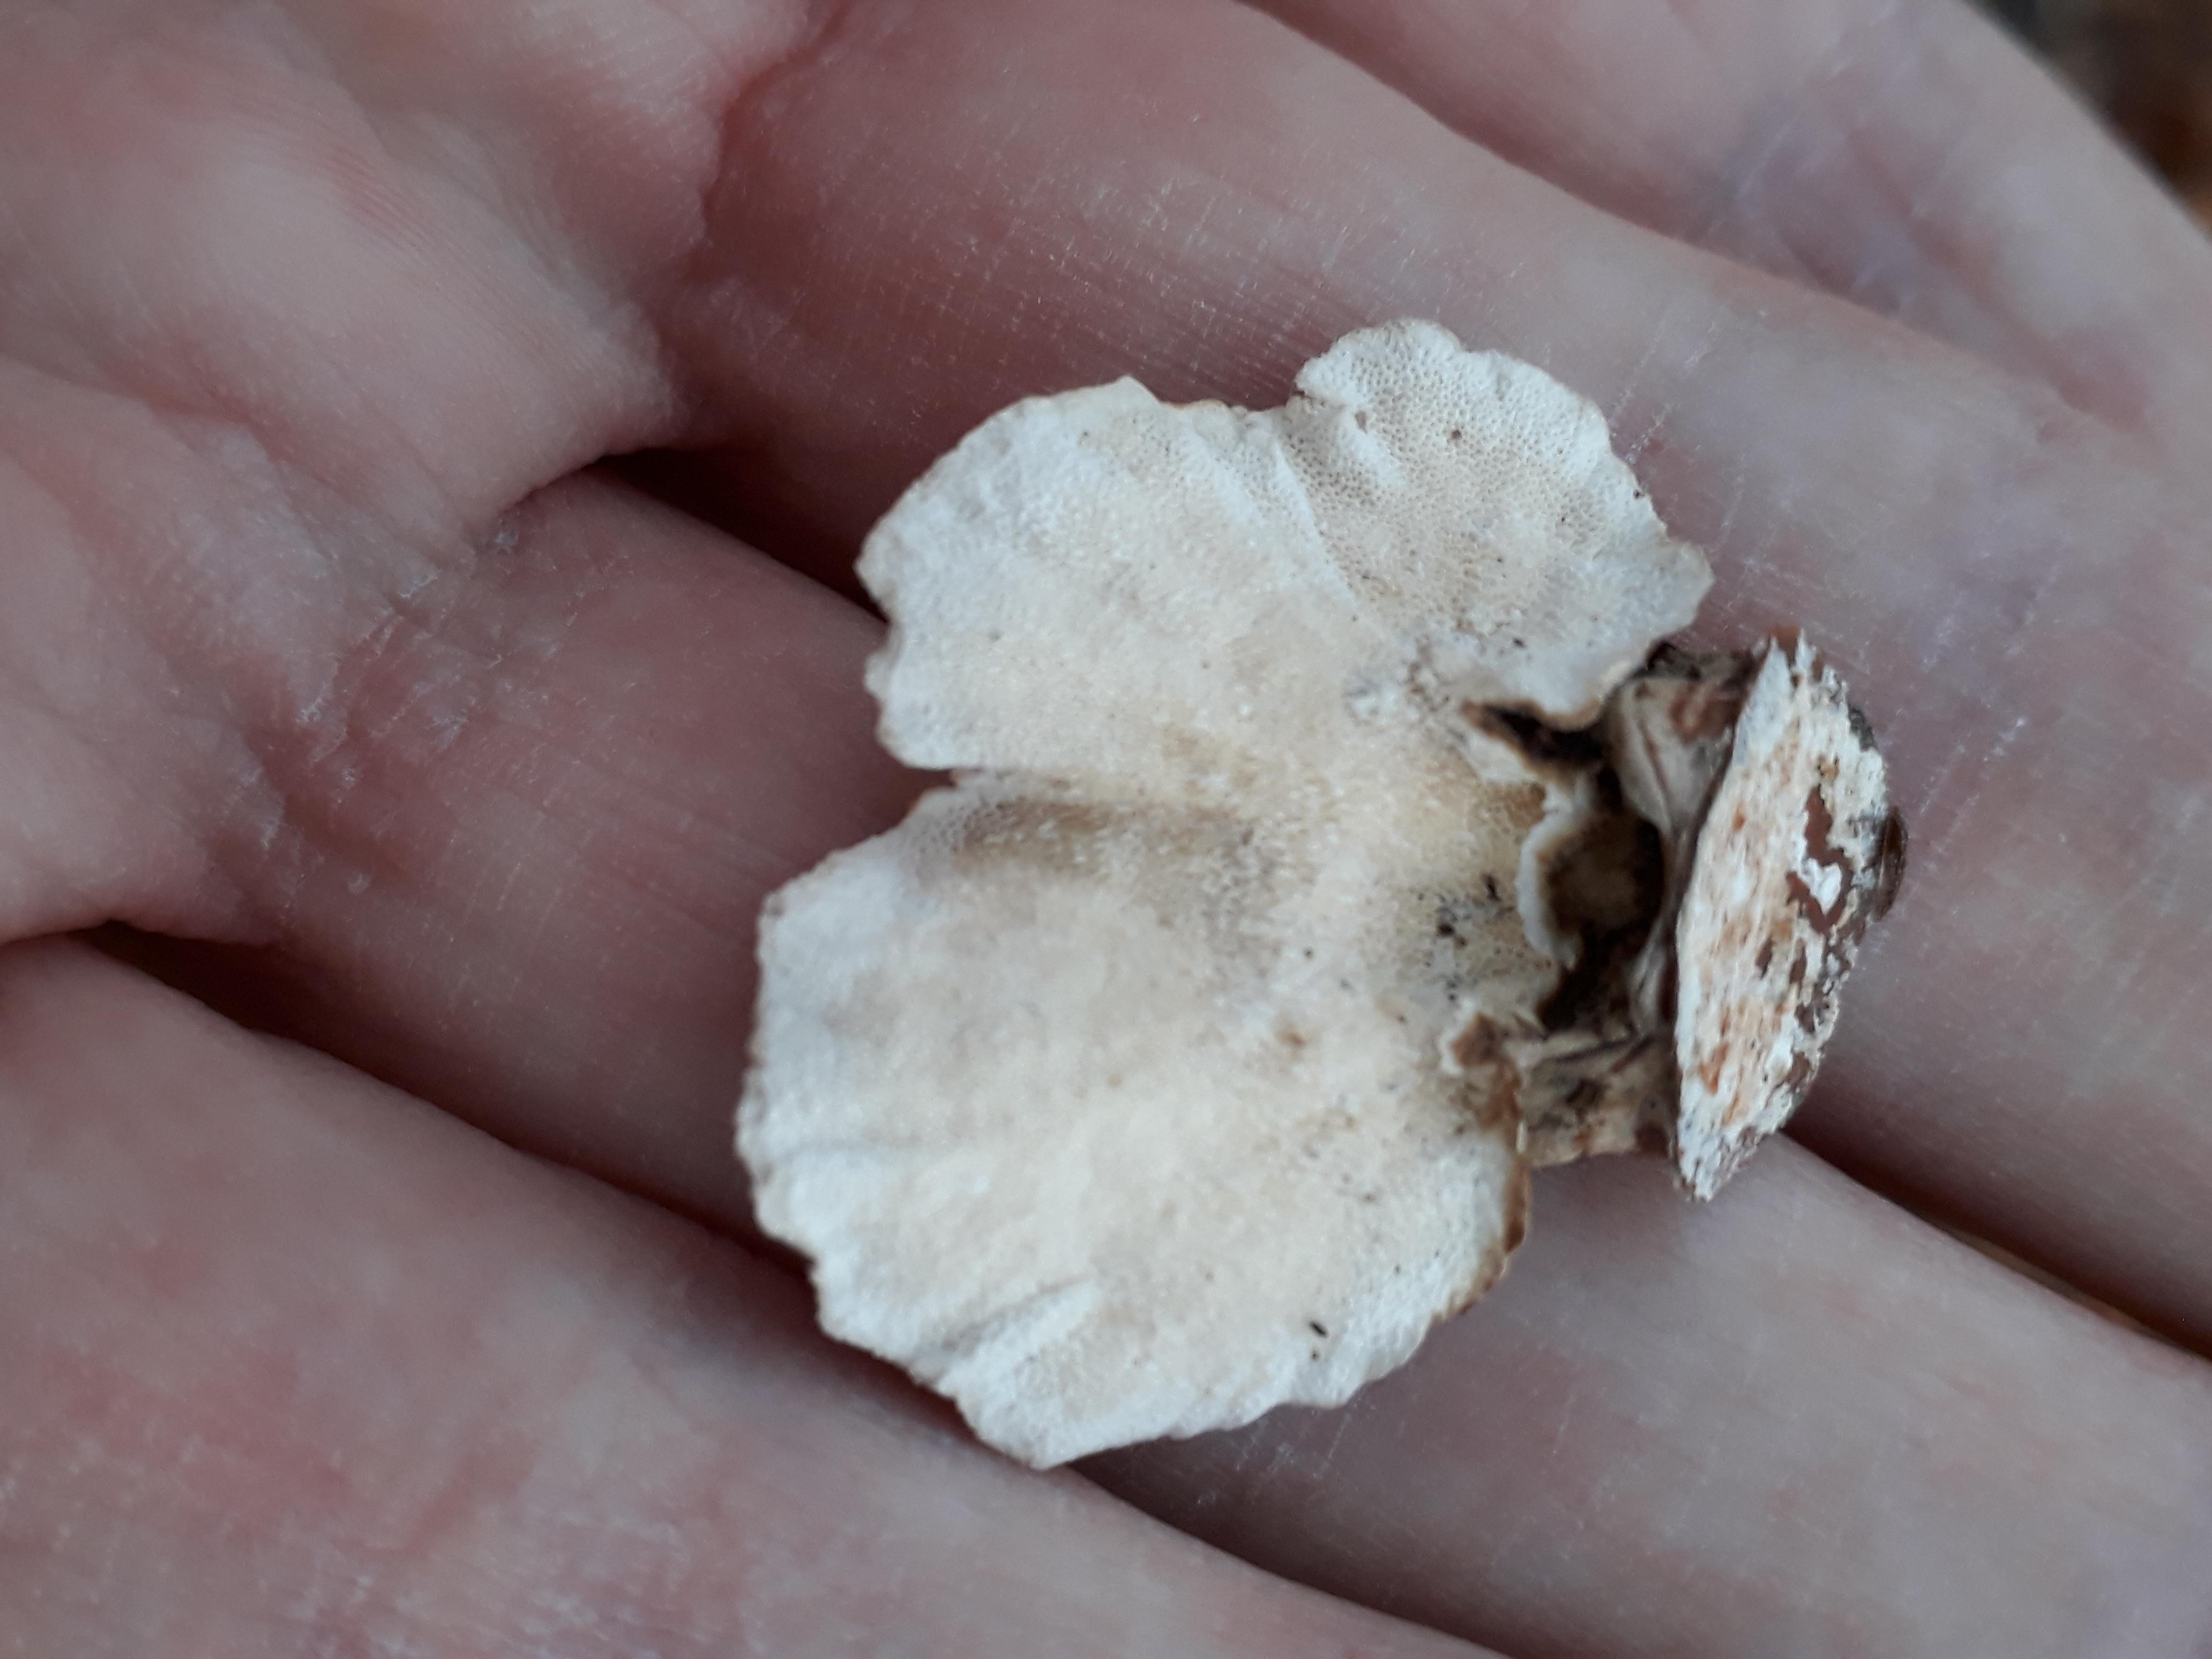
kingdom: Fungi
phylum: Basidiomycota
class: Agaricomycetes
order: Polyporales
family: Polyporaceae
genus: Trametes
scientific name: Trametes versicolor
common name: broget læderporesvamp
